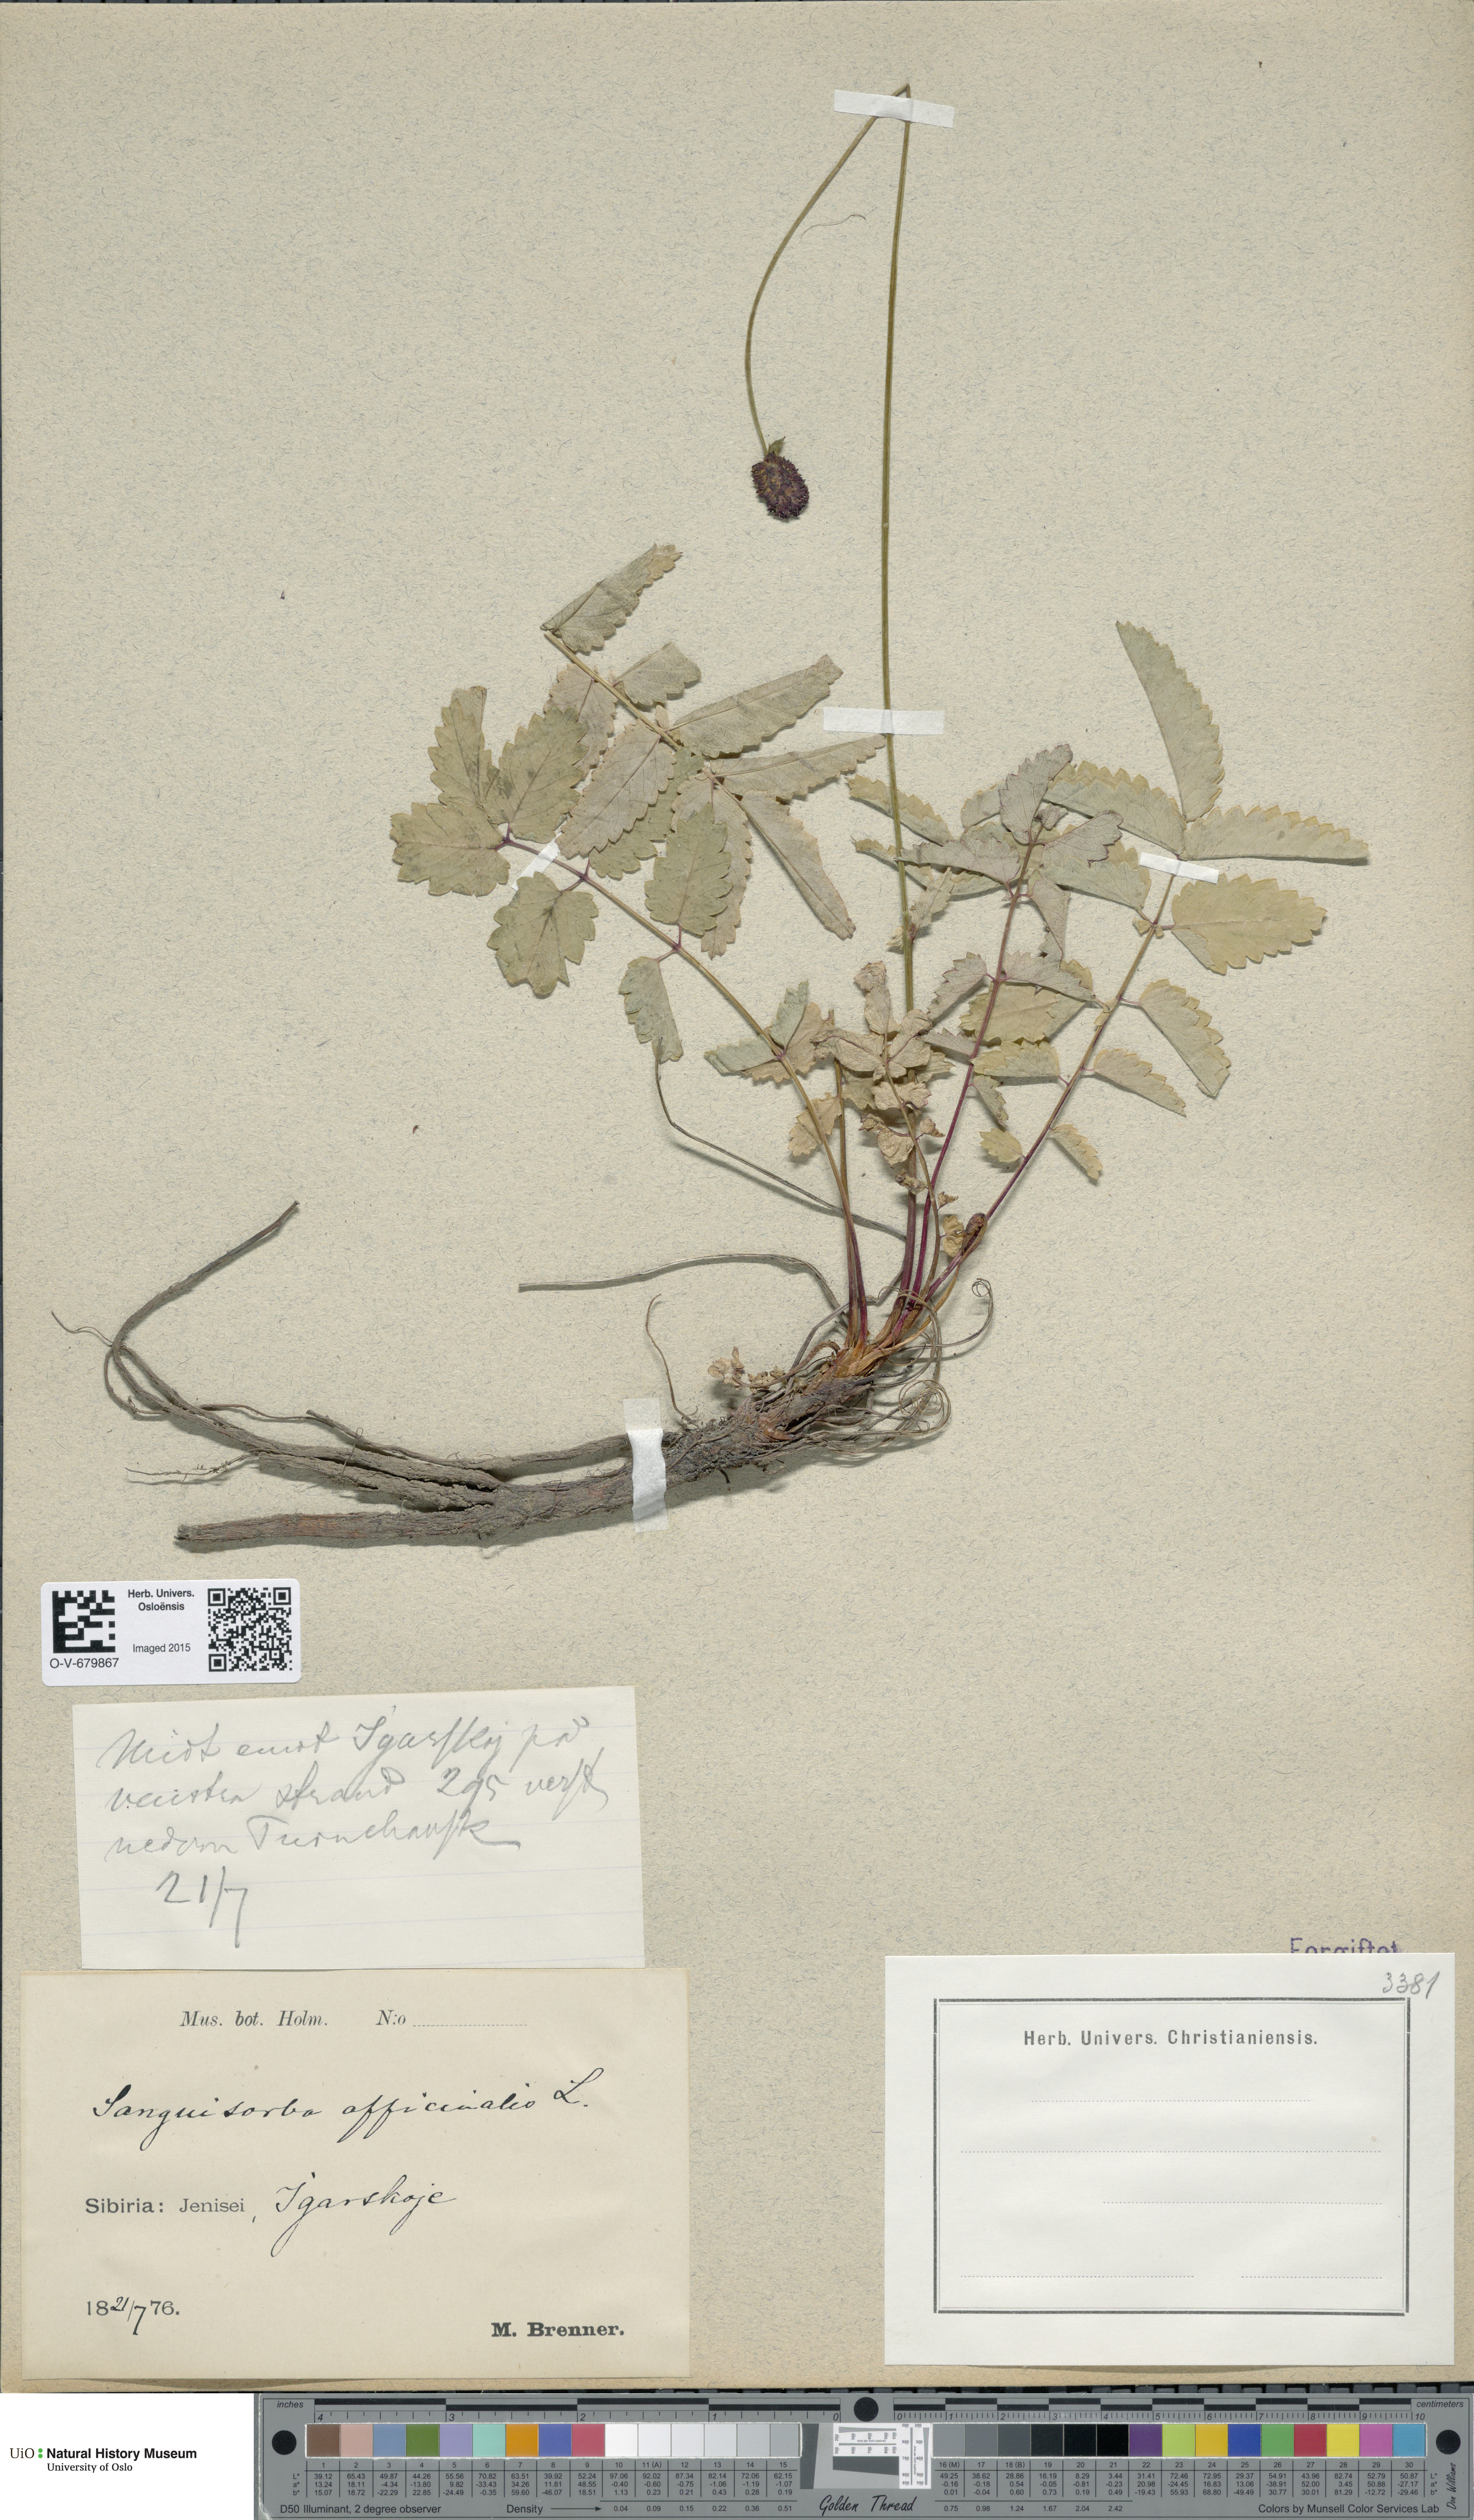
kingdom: Plantae
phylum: Tracheophyta
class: Magnoliopsida
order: Rosales
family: Rosaceae
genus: Sanguisorba
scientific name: Sanguisorba officinalis
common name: Great burnet
